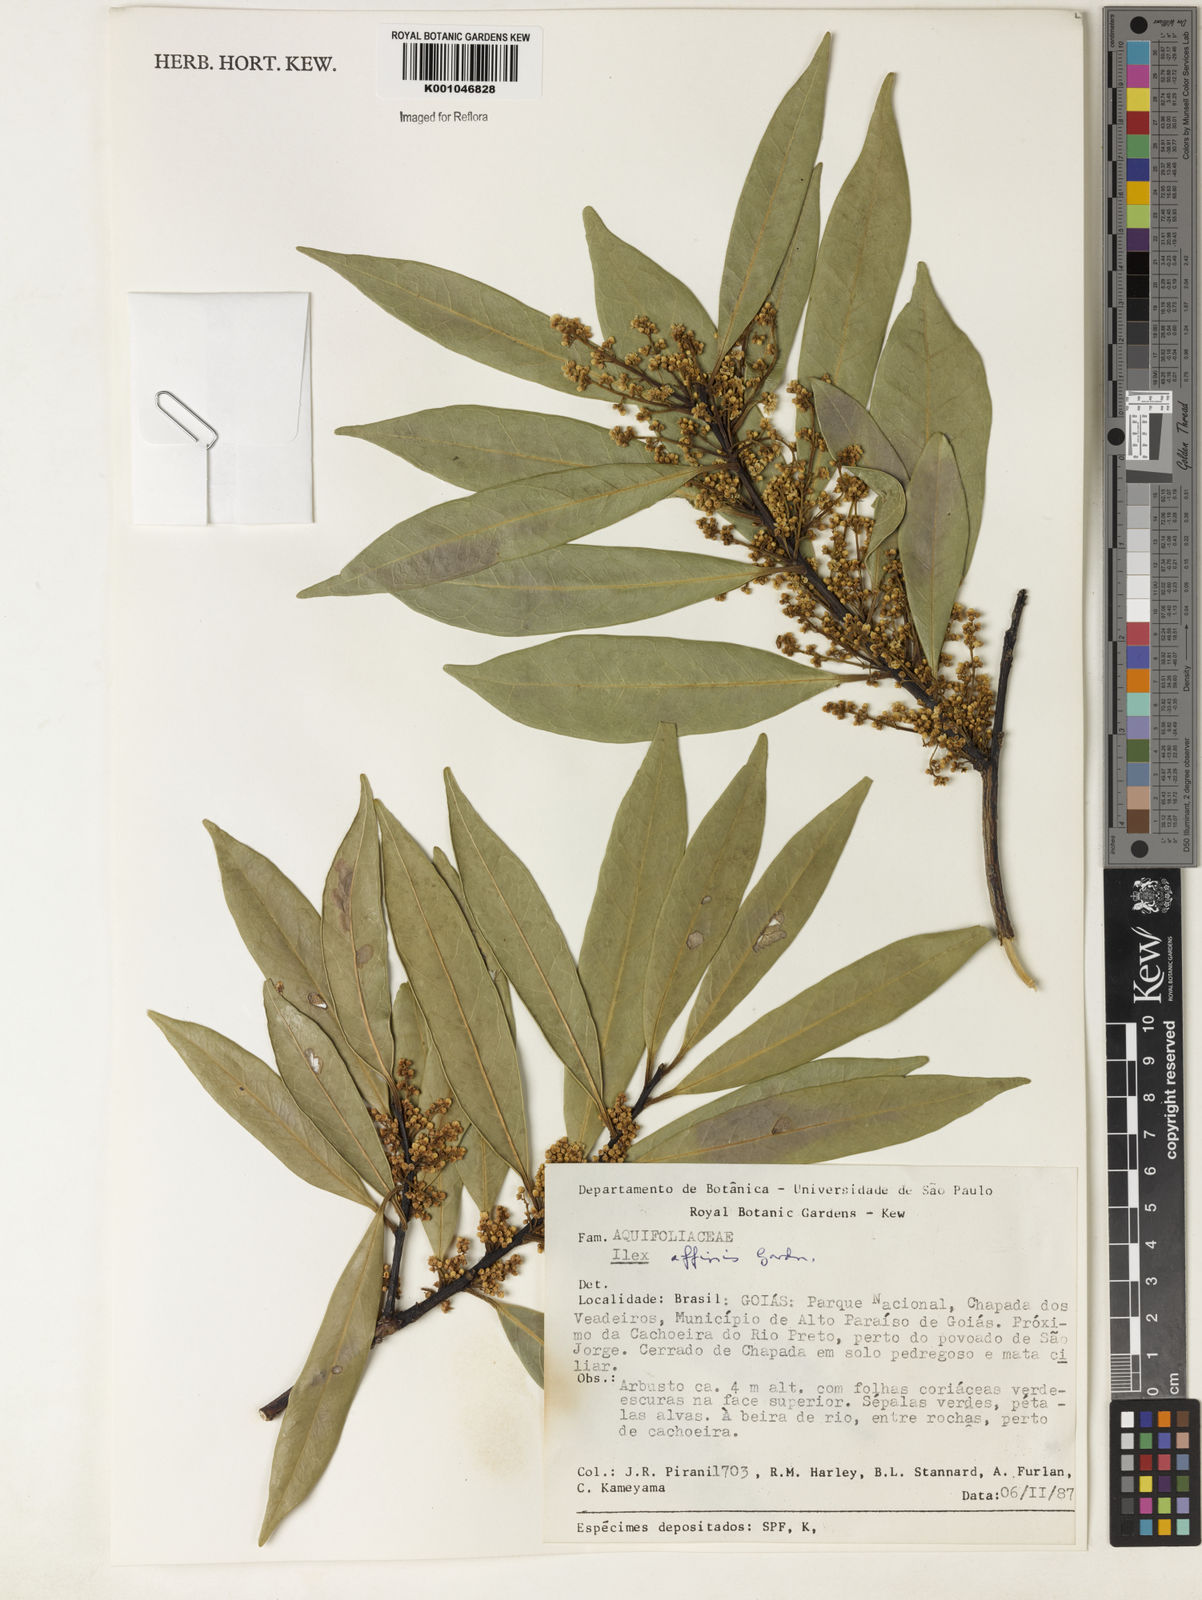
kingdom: Plantae
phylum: Tracheophyta
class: Magnoliopsida
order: Aquifoliales
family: Aquifoliaceae
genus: Ilex
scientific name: Ilex affinis
